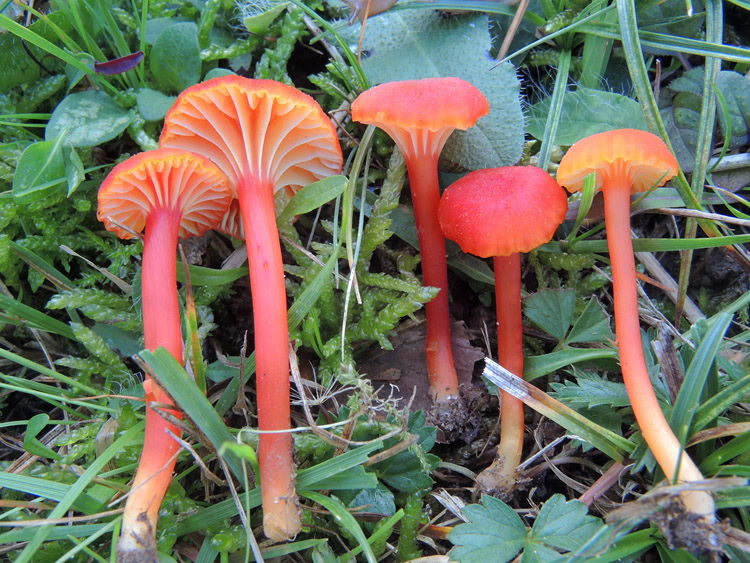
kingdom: Fungi
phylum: Basidiomycota
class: Agaricomycetes
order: Agaricales
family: Hygrophoraceae
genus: Hygrocybe
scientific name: Hygrocybe cantharellus
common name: kantarel-vokshat
